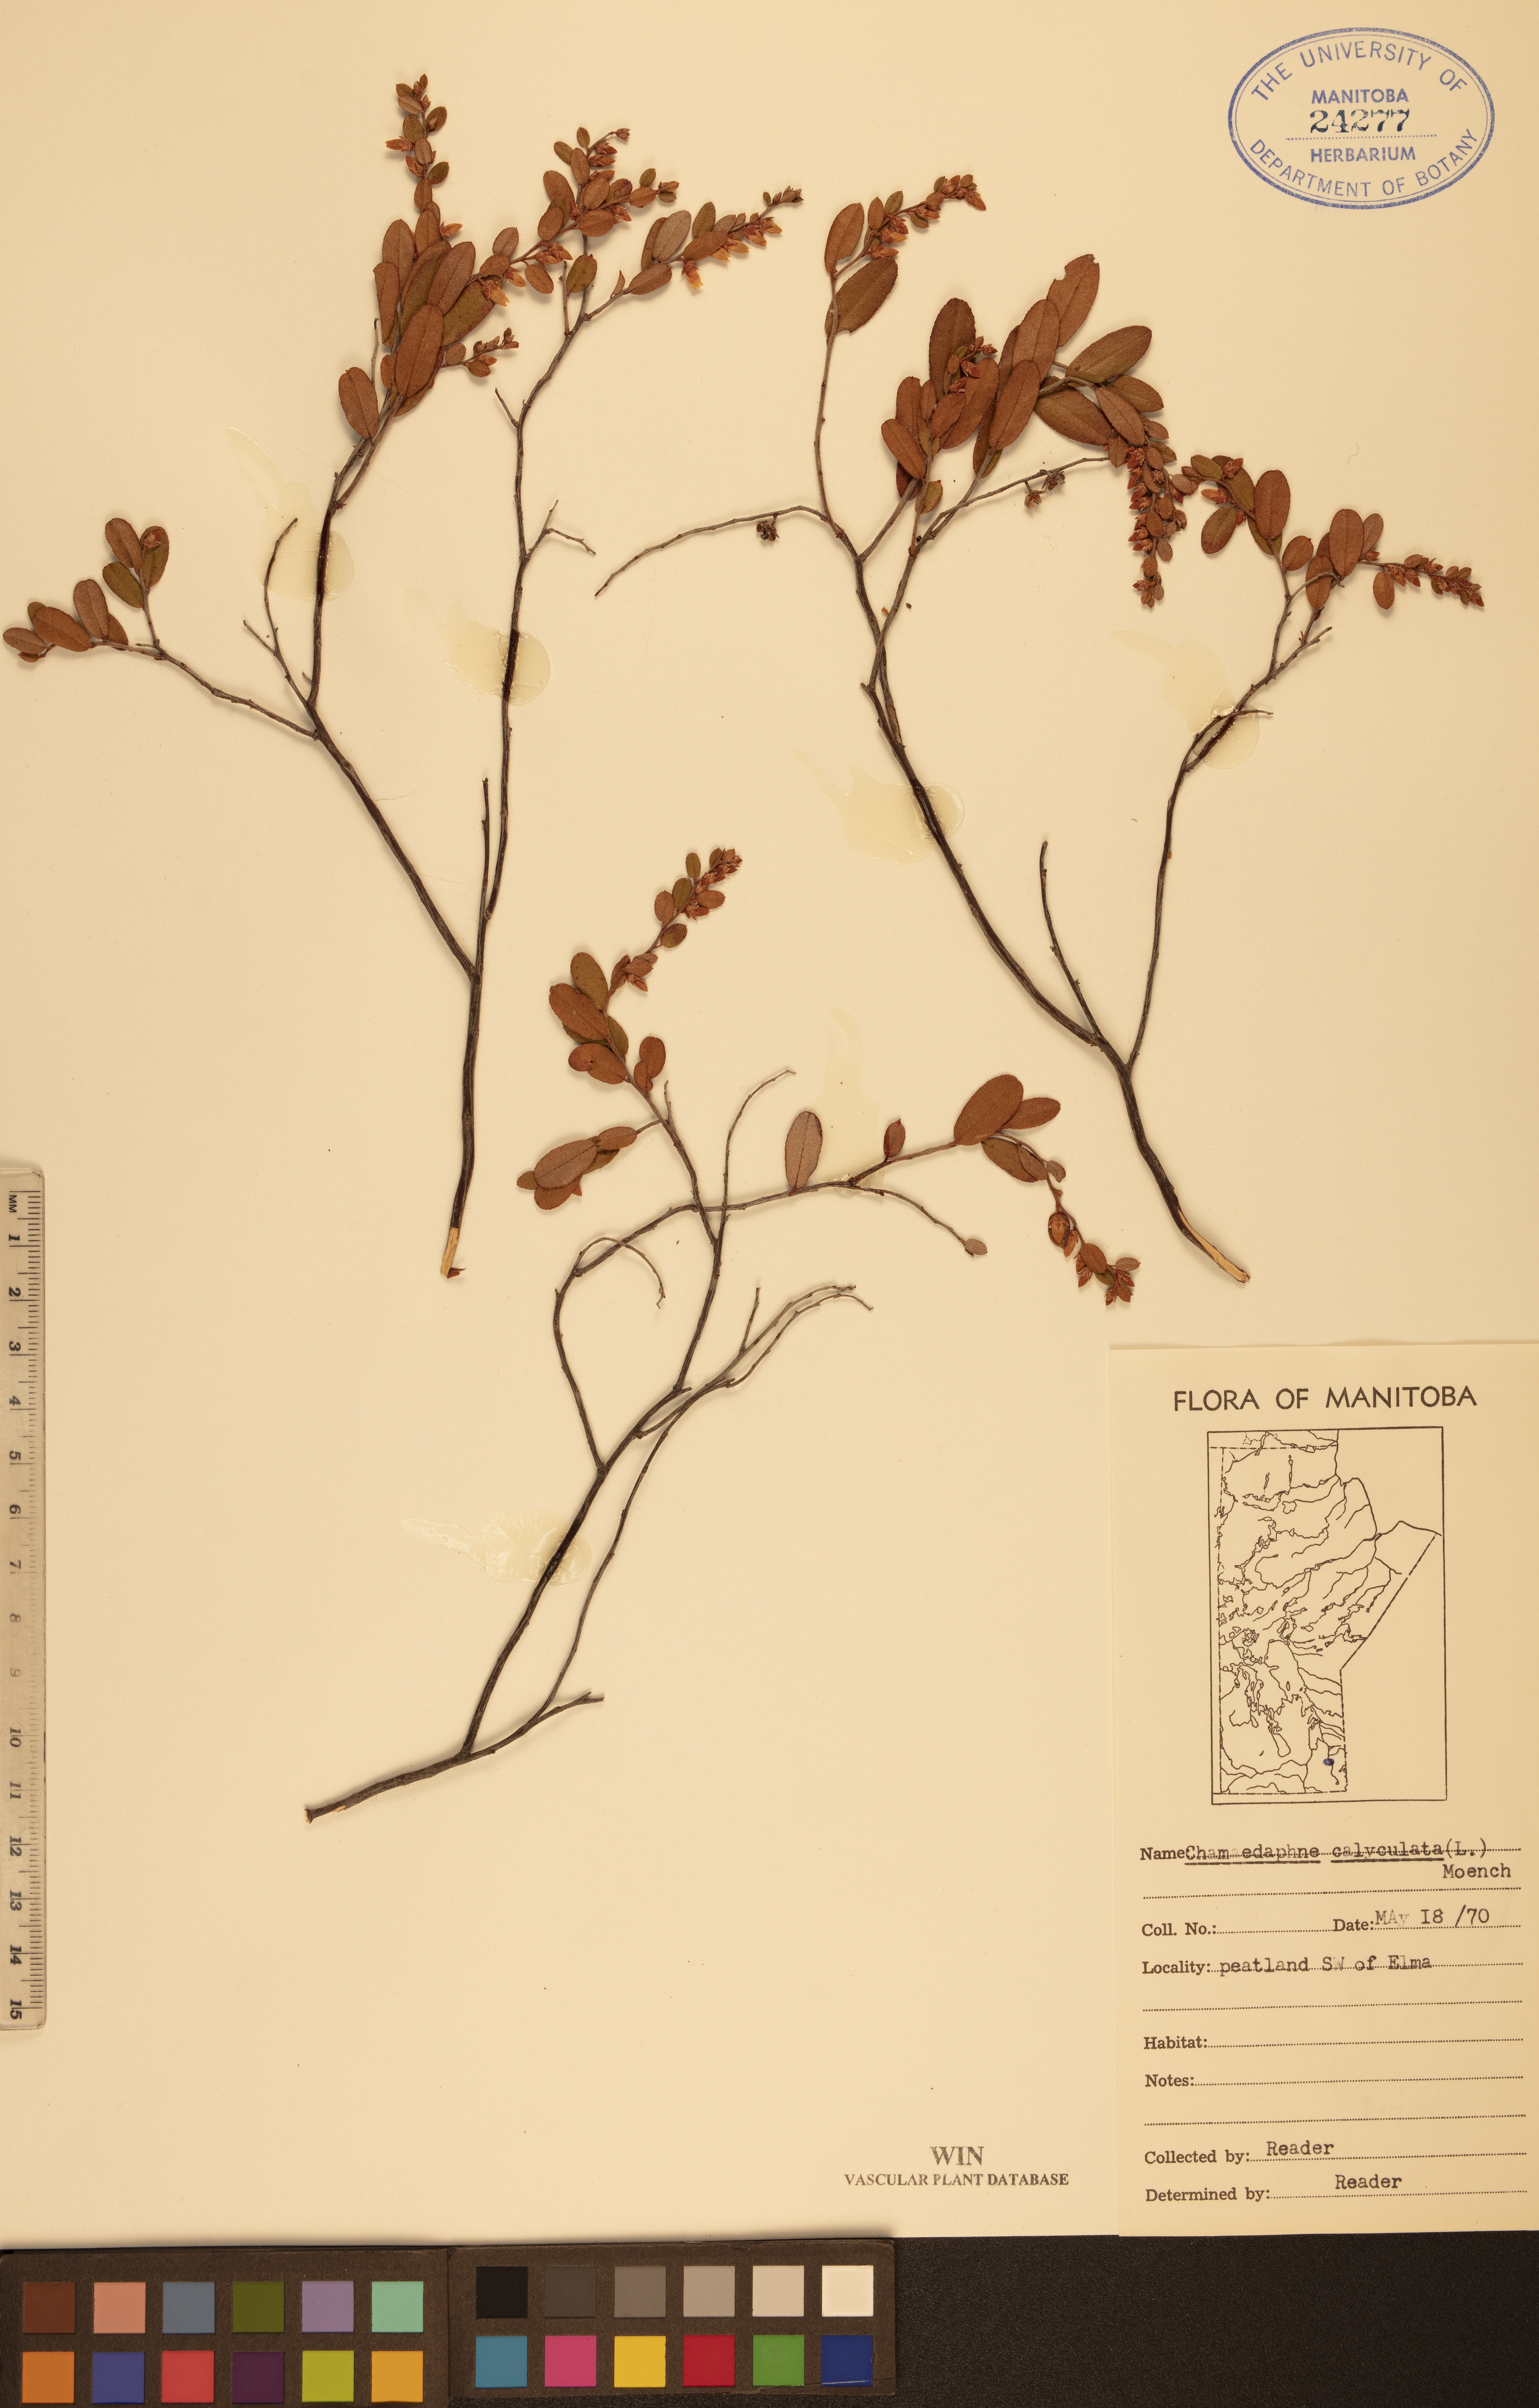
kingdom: Plantae
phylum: Tracheophyta
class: Magnoliopsida
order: Ericales
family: Ericaceae
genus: Chamaedaphne
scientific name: Chamaedaphne calyculata
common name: Leatherleaf
